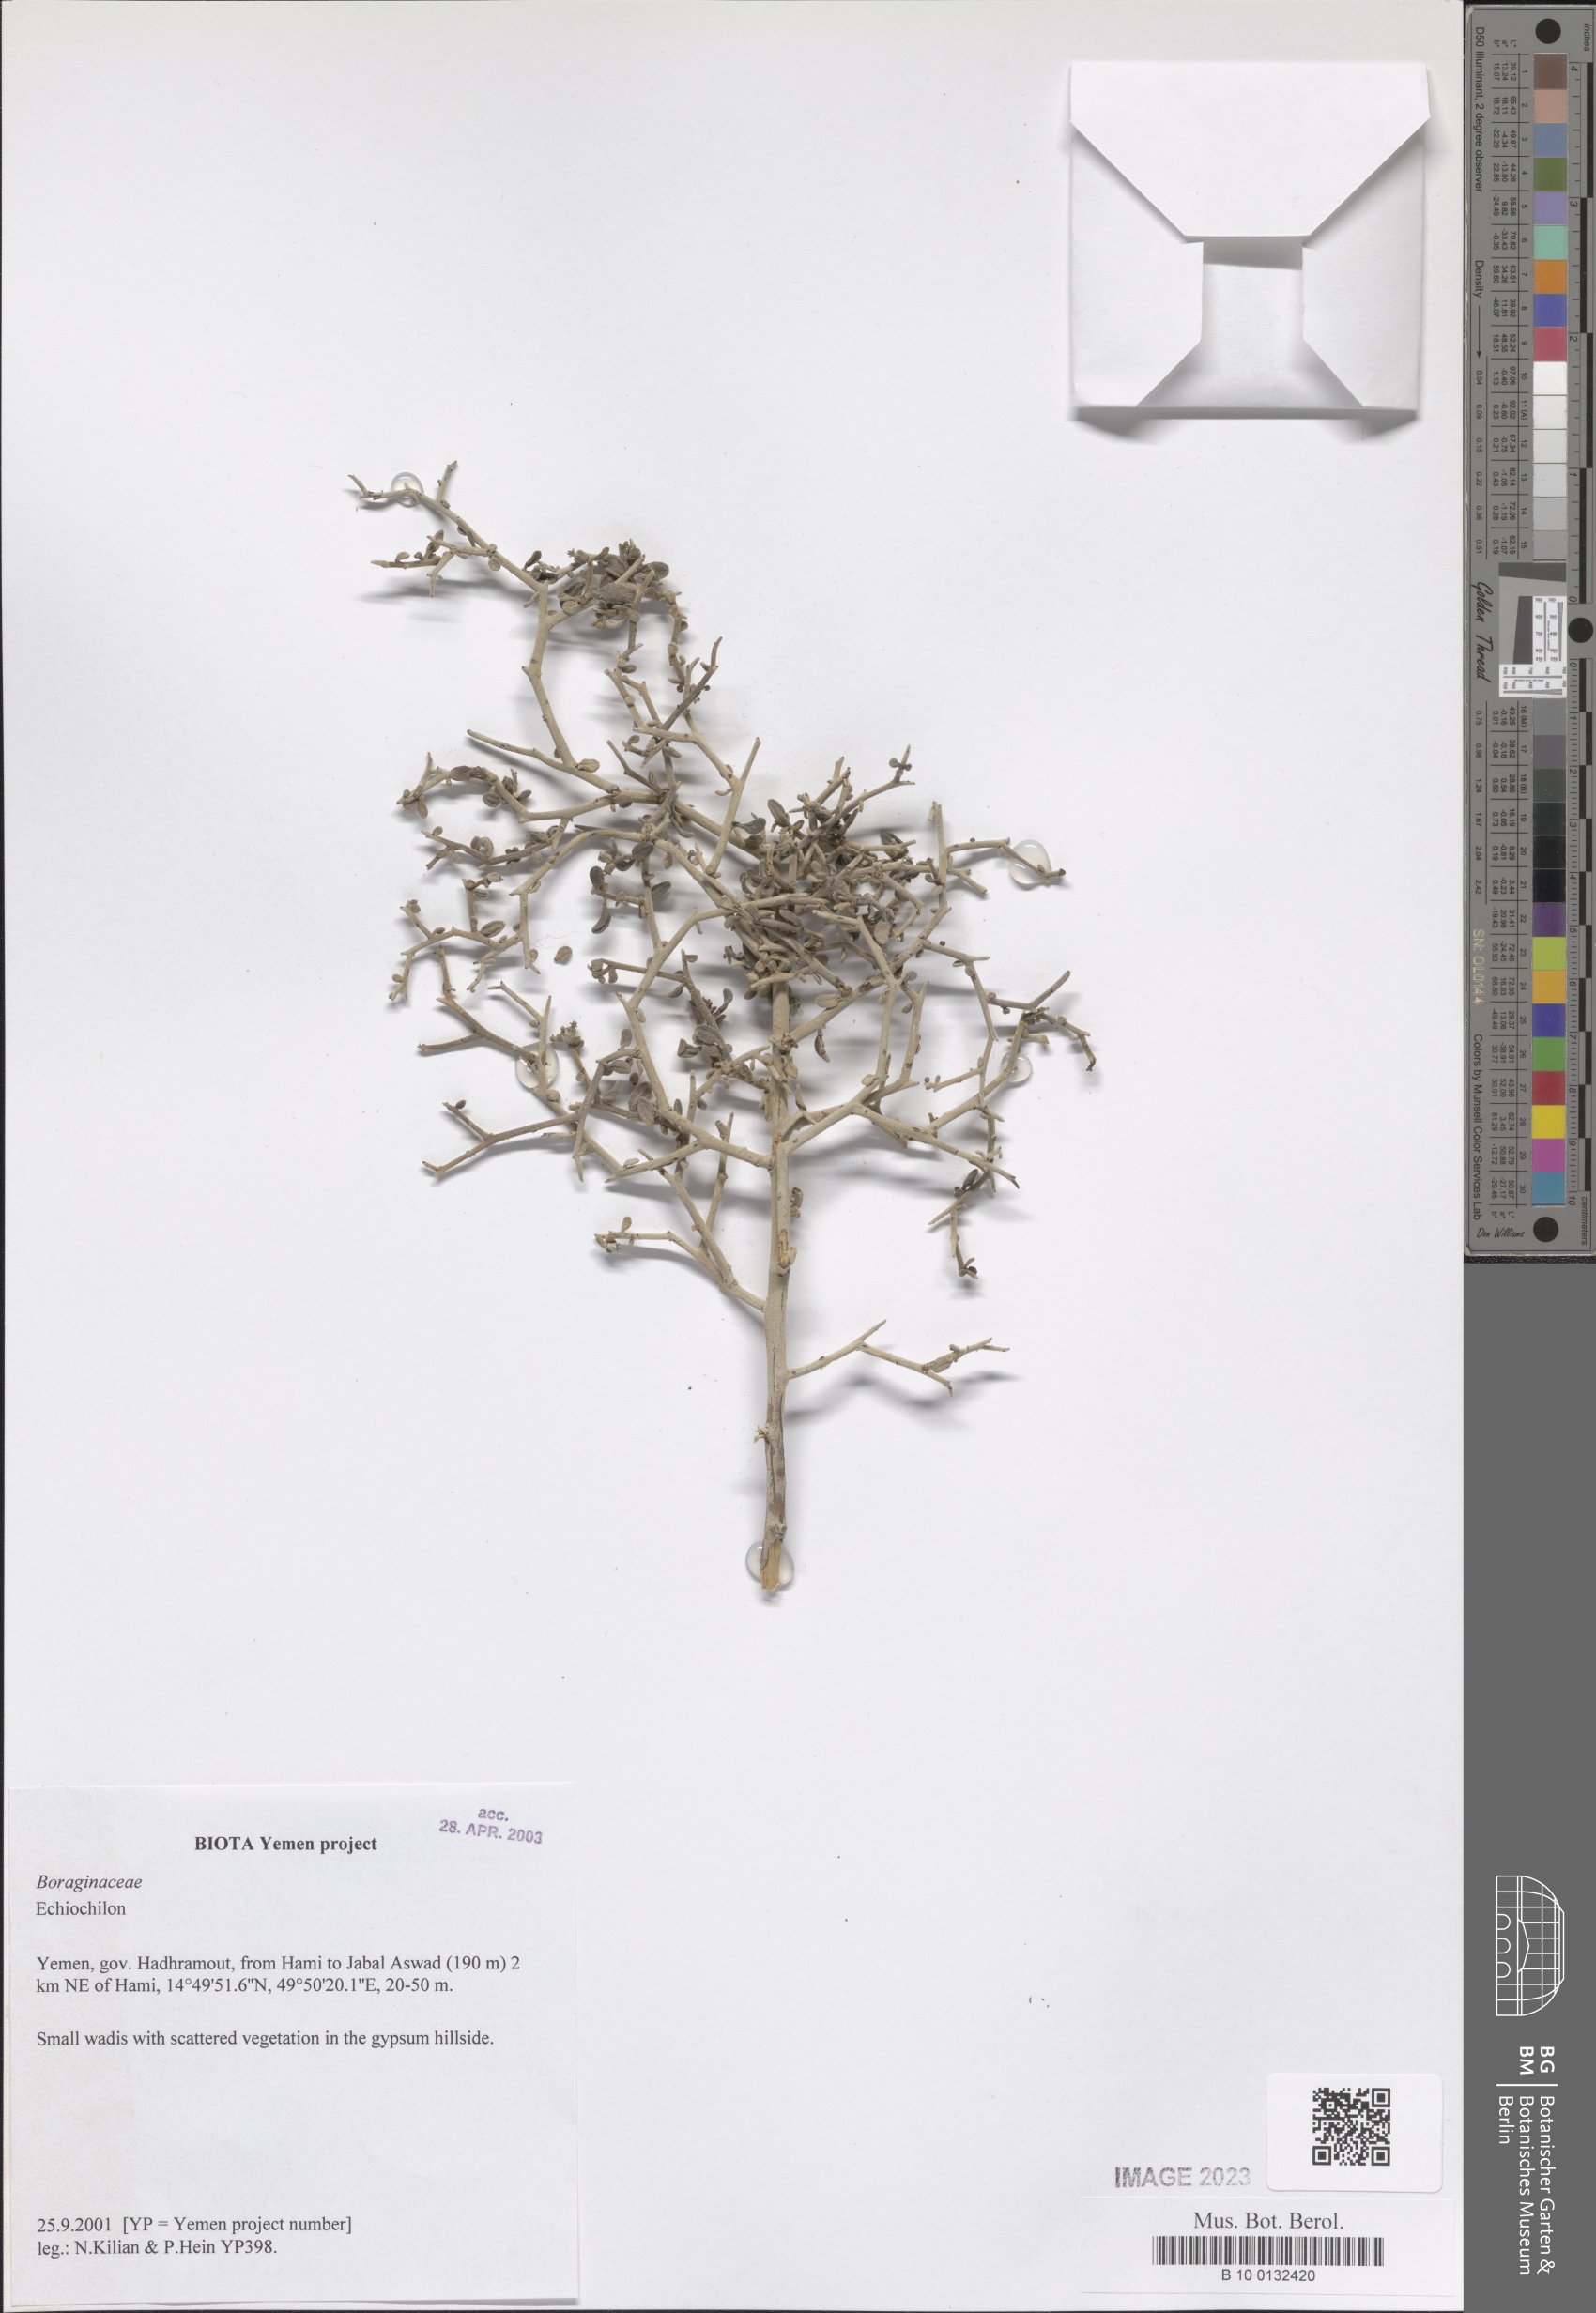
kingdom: Plantae
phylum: Tracheophyta
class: Magnoliopsida
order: Boraginales
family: Boraginaceae
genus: Echiochilon
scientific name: Echiochilon
